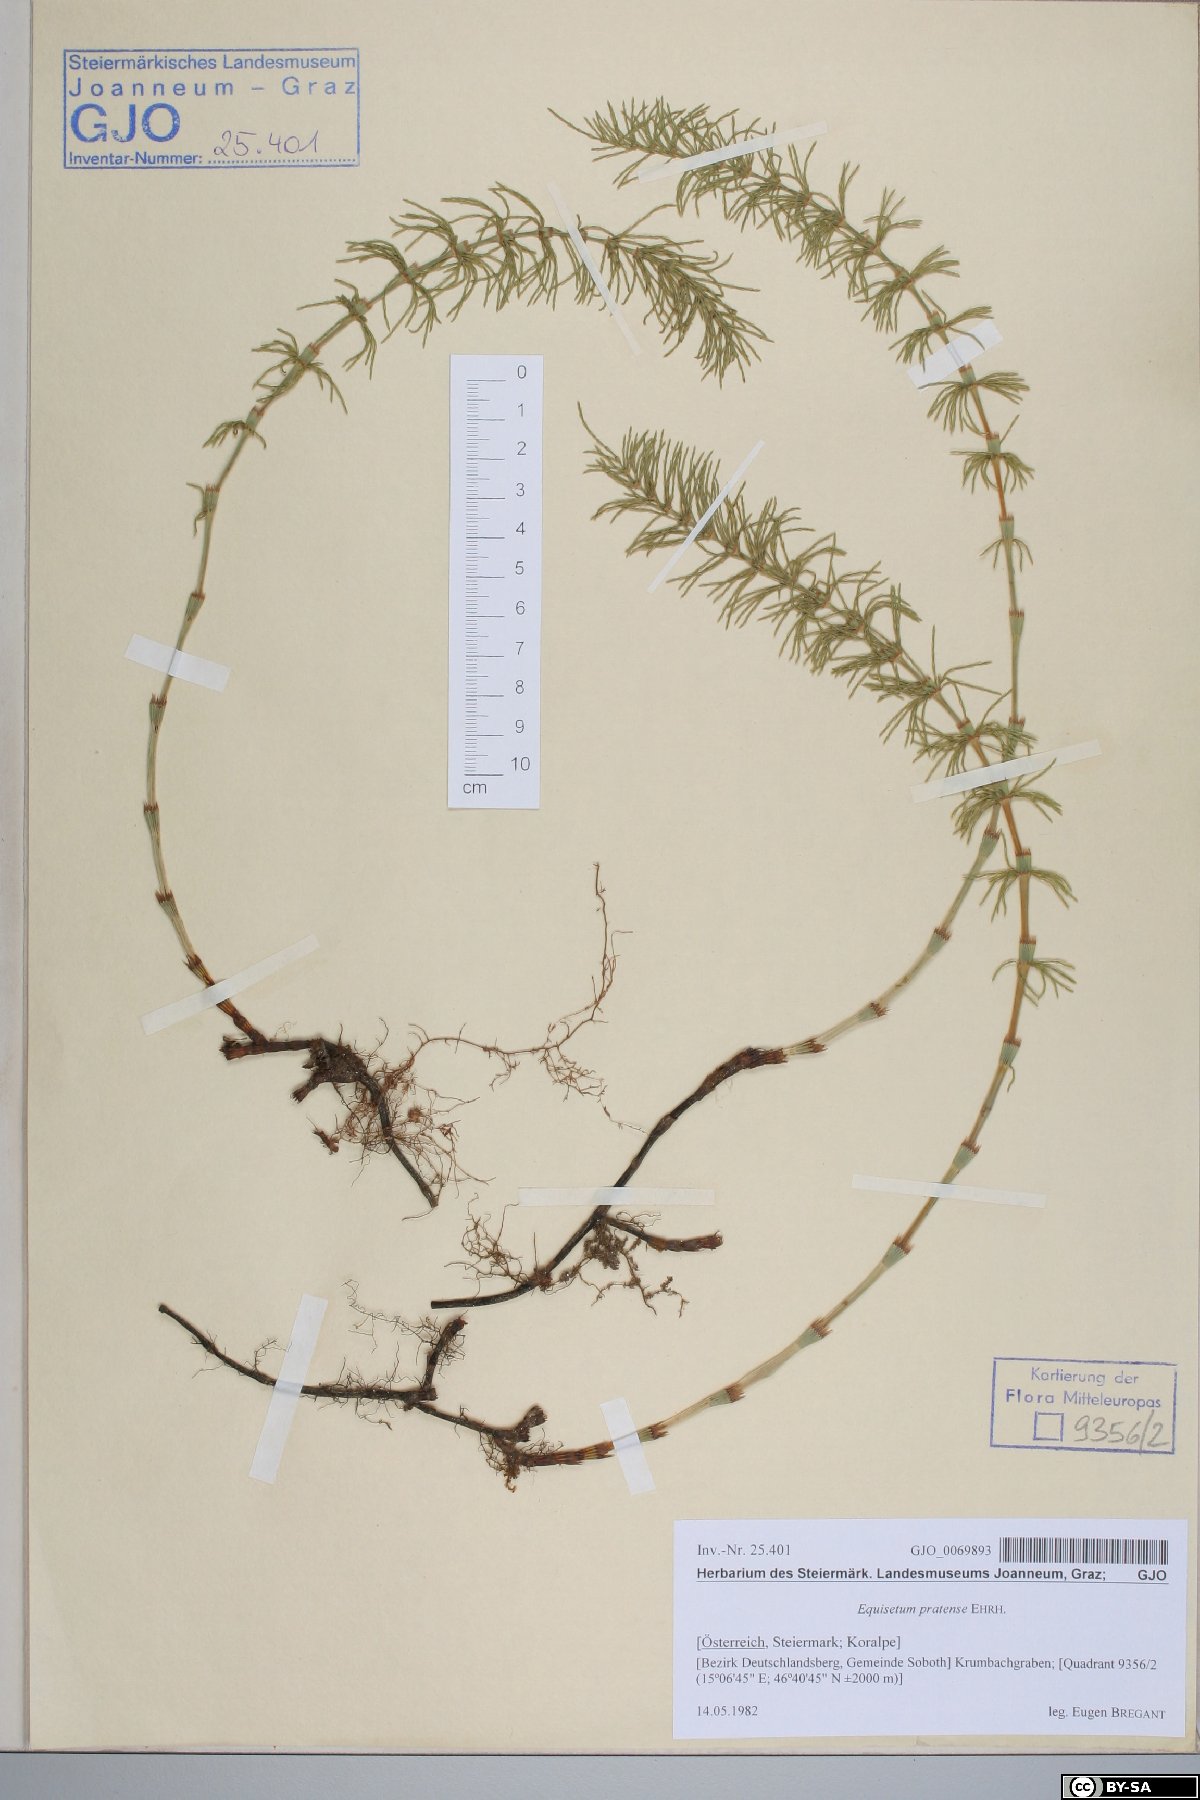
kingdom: Plantae
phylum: Tracheophyta
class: Polypodiopsida
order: Equisetales
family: Equisetaceae
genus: Equisetum
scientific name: Equisetum pratense
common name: Meadow horsetail
